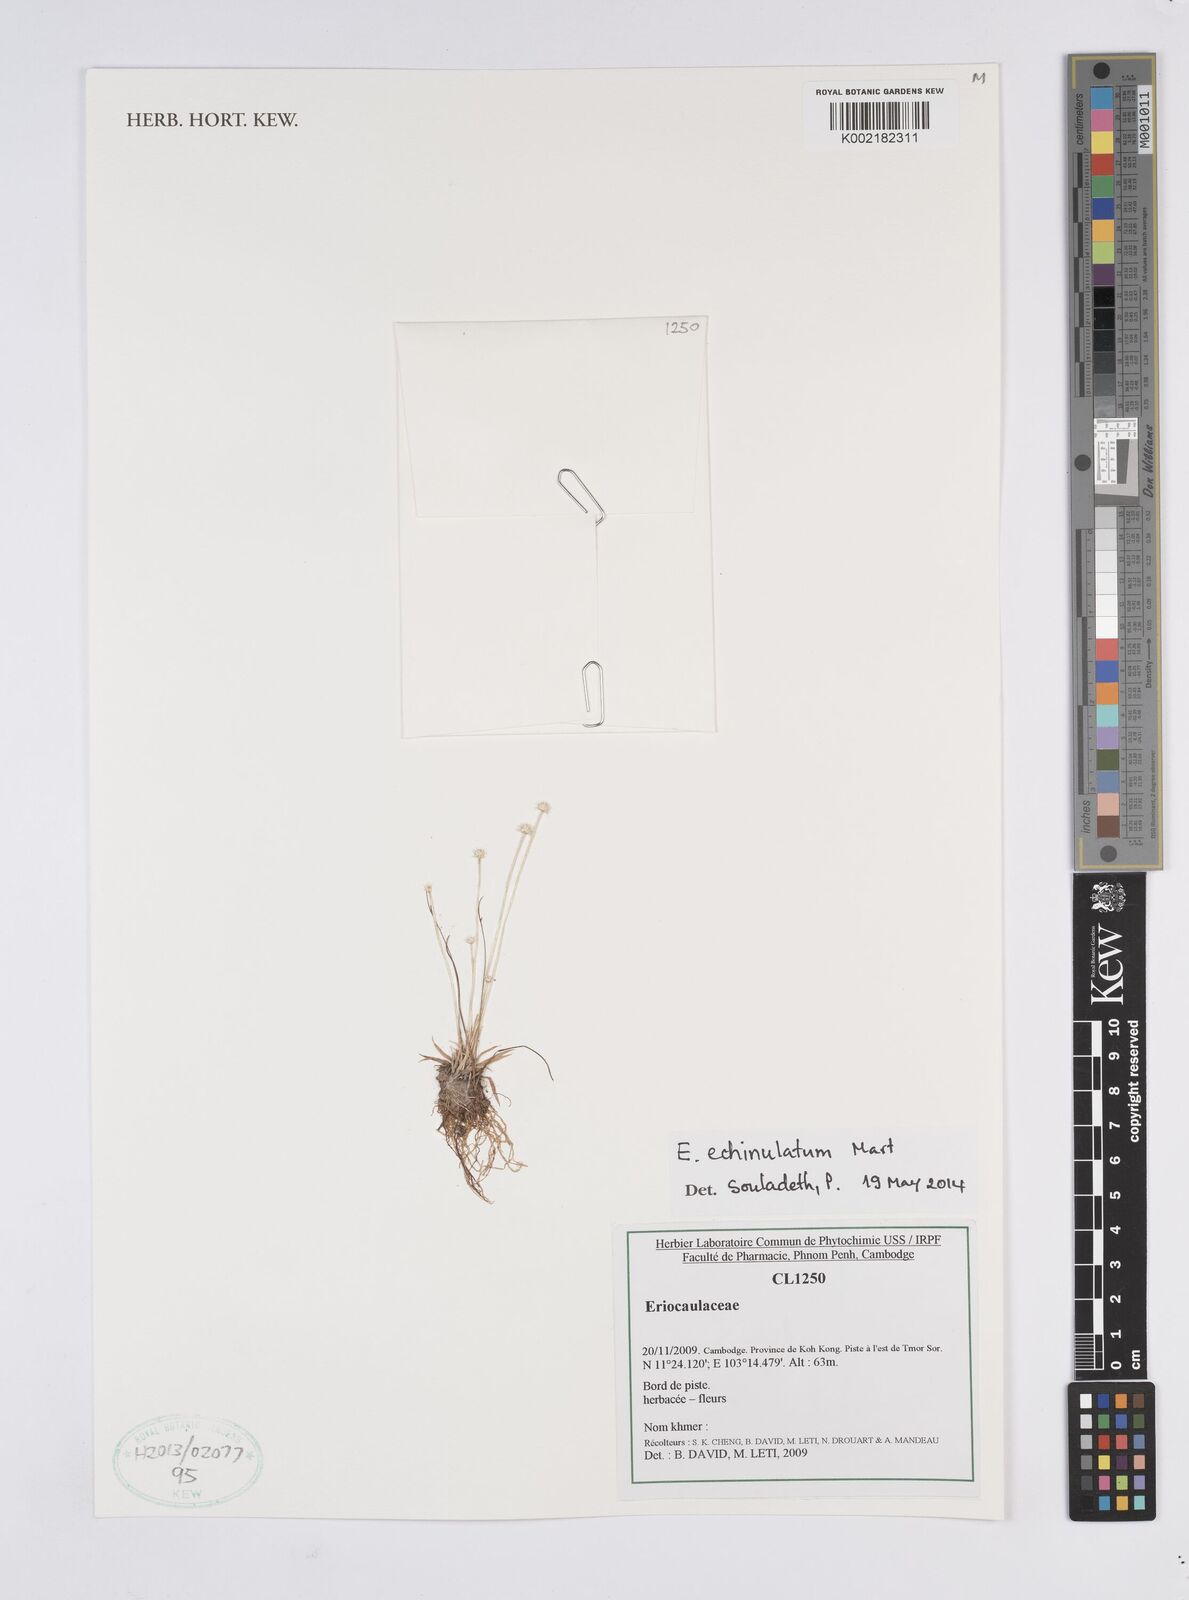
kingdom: Plantae
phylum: Tracheophyta
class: Liliopsida
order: Poales
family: Eriocaulaceae
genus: Eriocaulon
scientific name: Eriocaulon echinulatum
